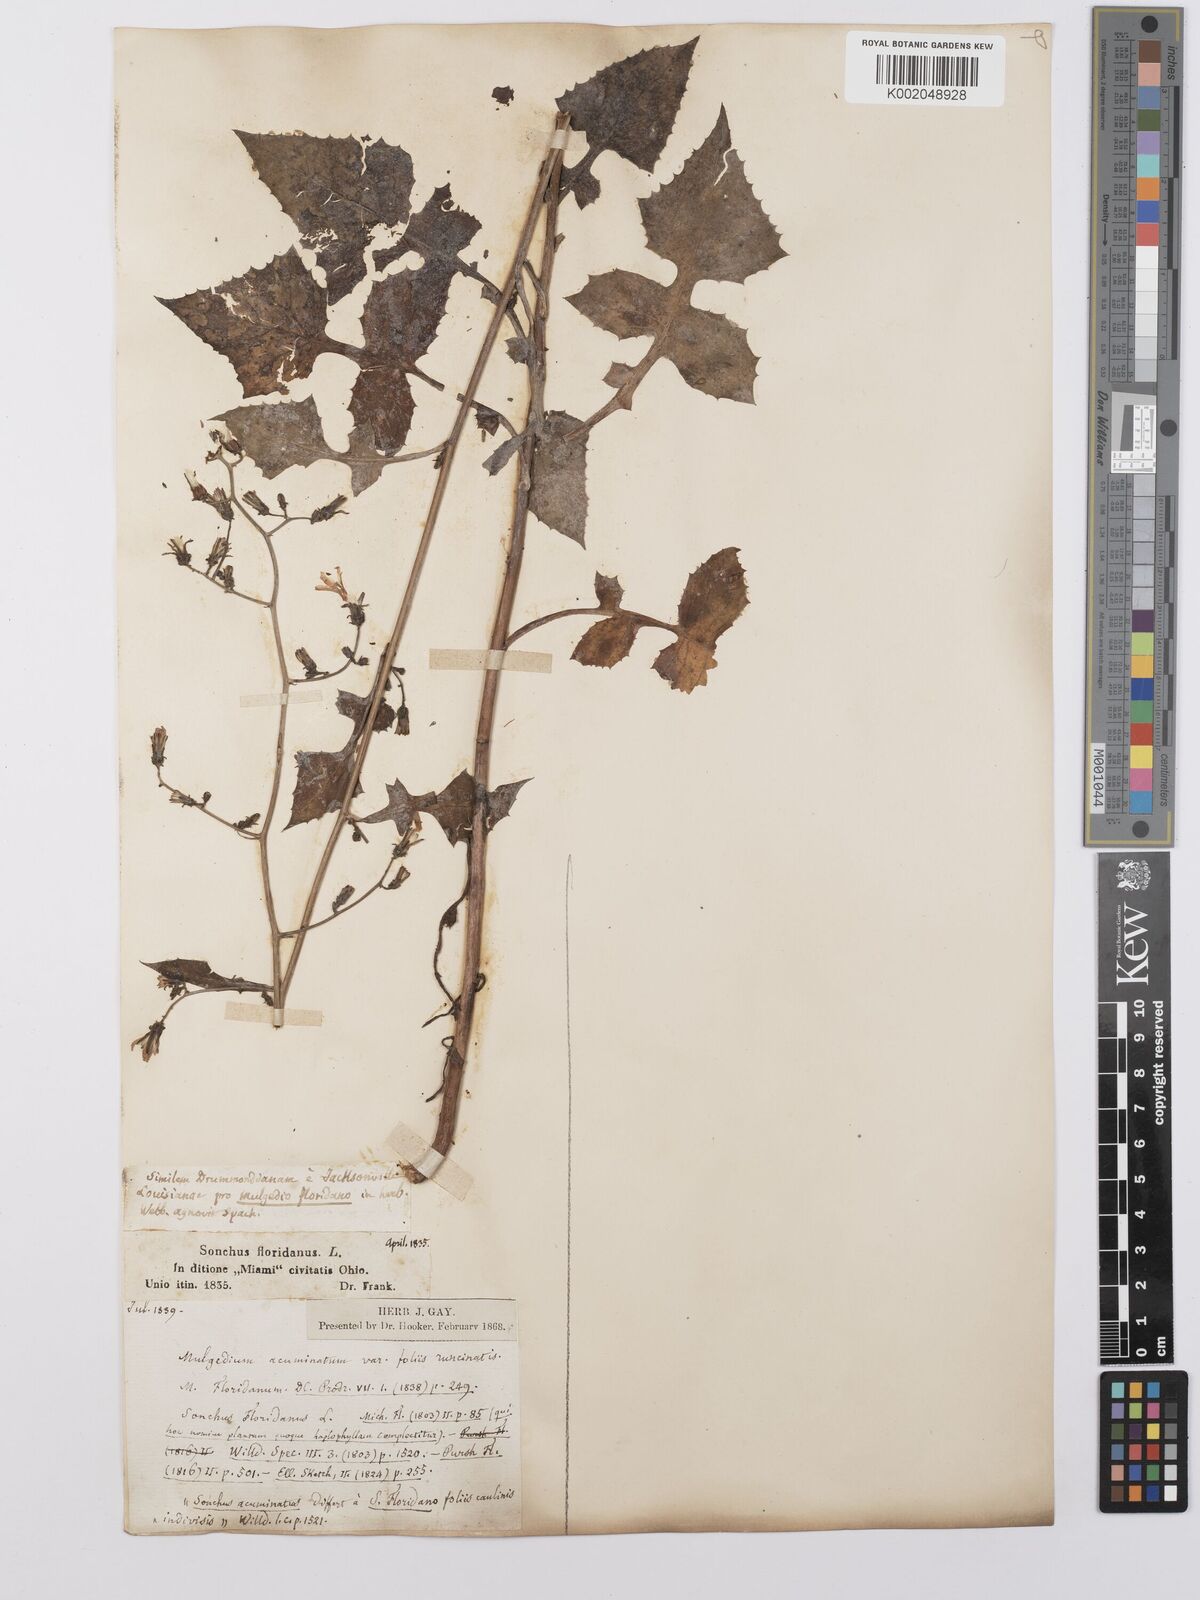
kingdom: Plantae
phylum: Tracheophyta
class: Magnoliopsida
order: Asterales
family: Asteraceae
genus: Lactuca
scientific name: Lactuca floridana
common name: Woodland lettuce
